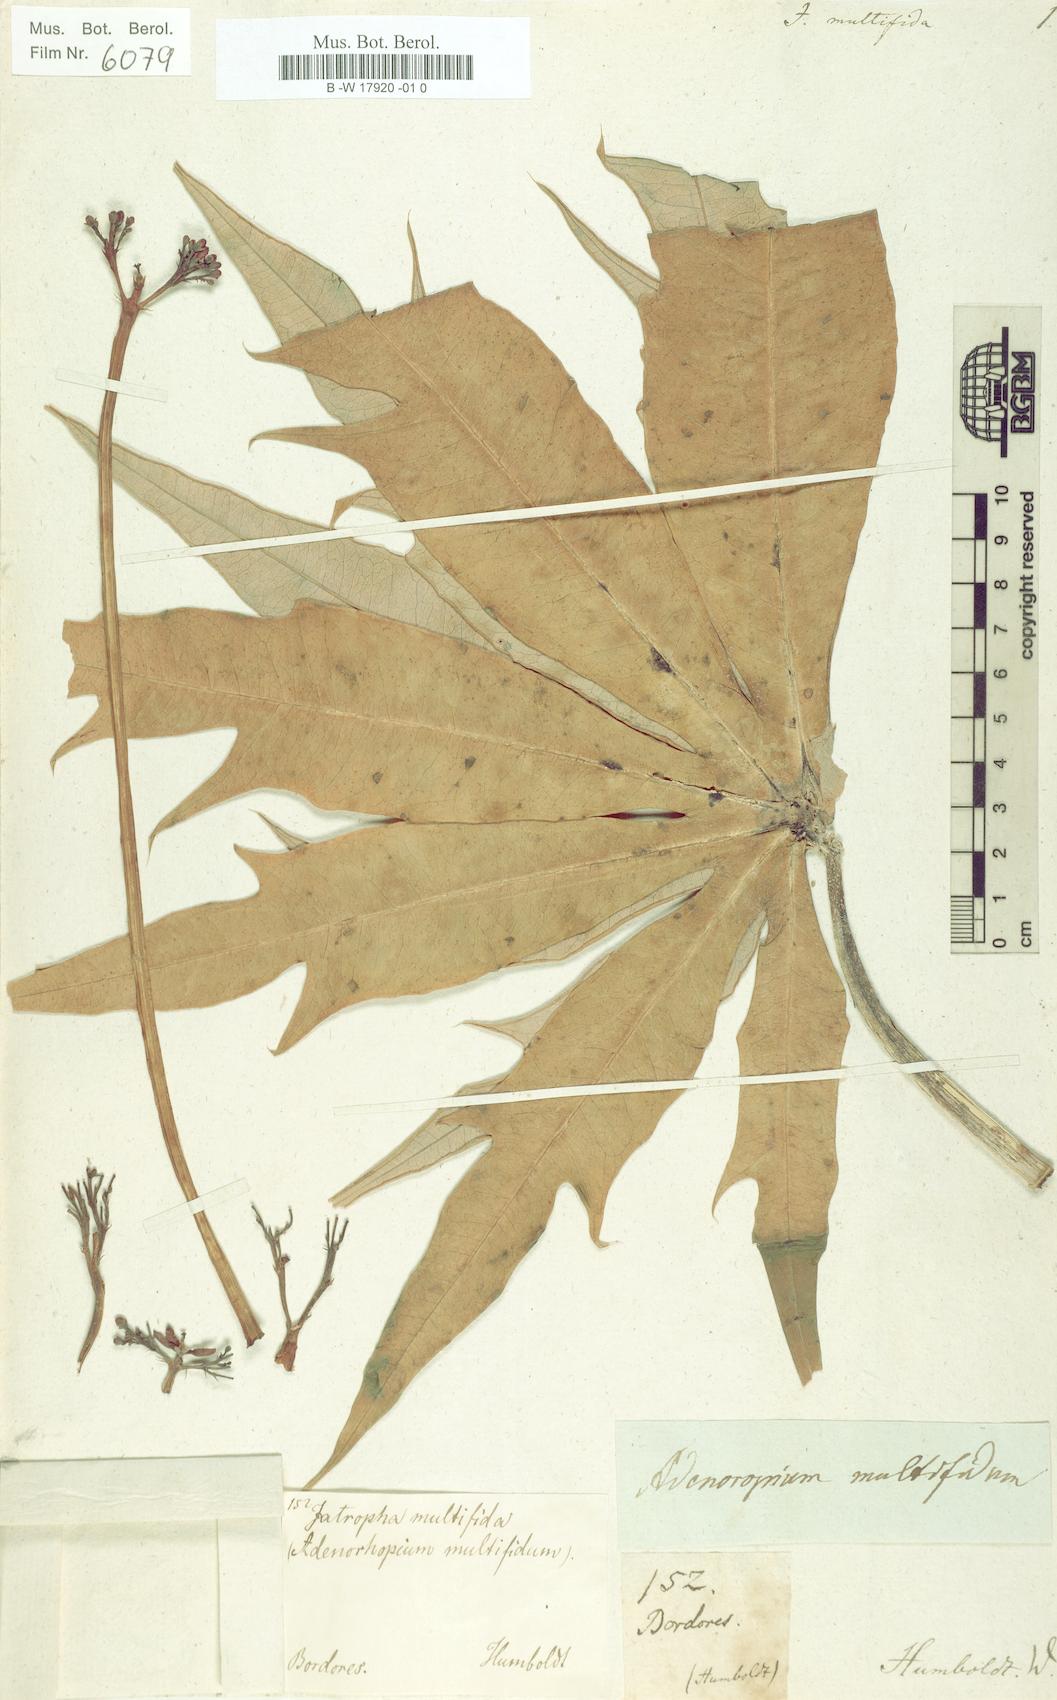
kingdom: Plantae
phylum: Tracheophyta
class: Magnoliopsida
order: Malpighiales
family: Euphorbiaceae
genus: Jatropha
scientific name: Jatropha multifida
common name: Coralbush
